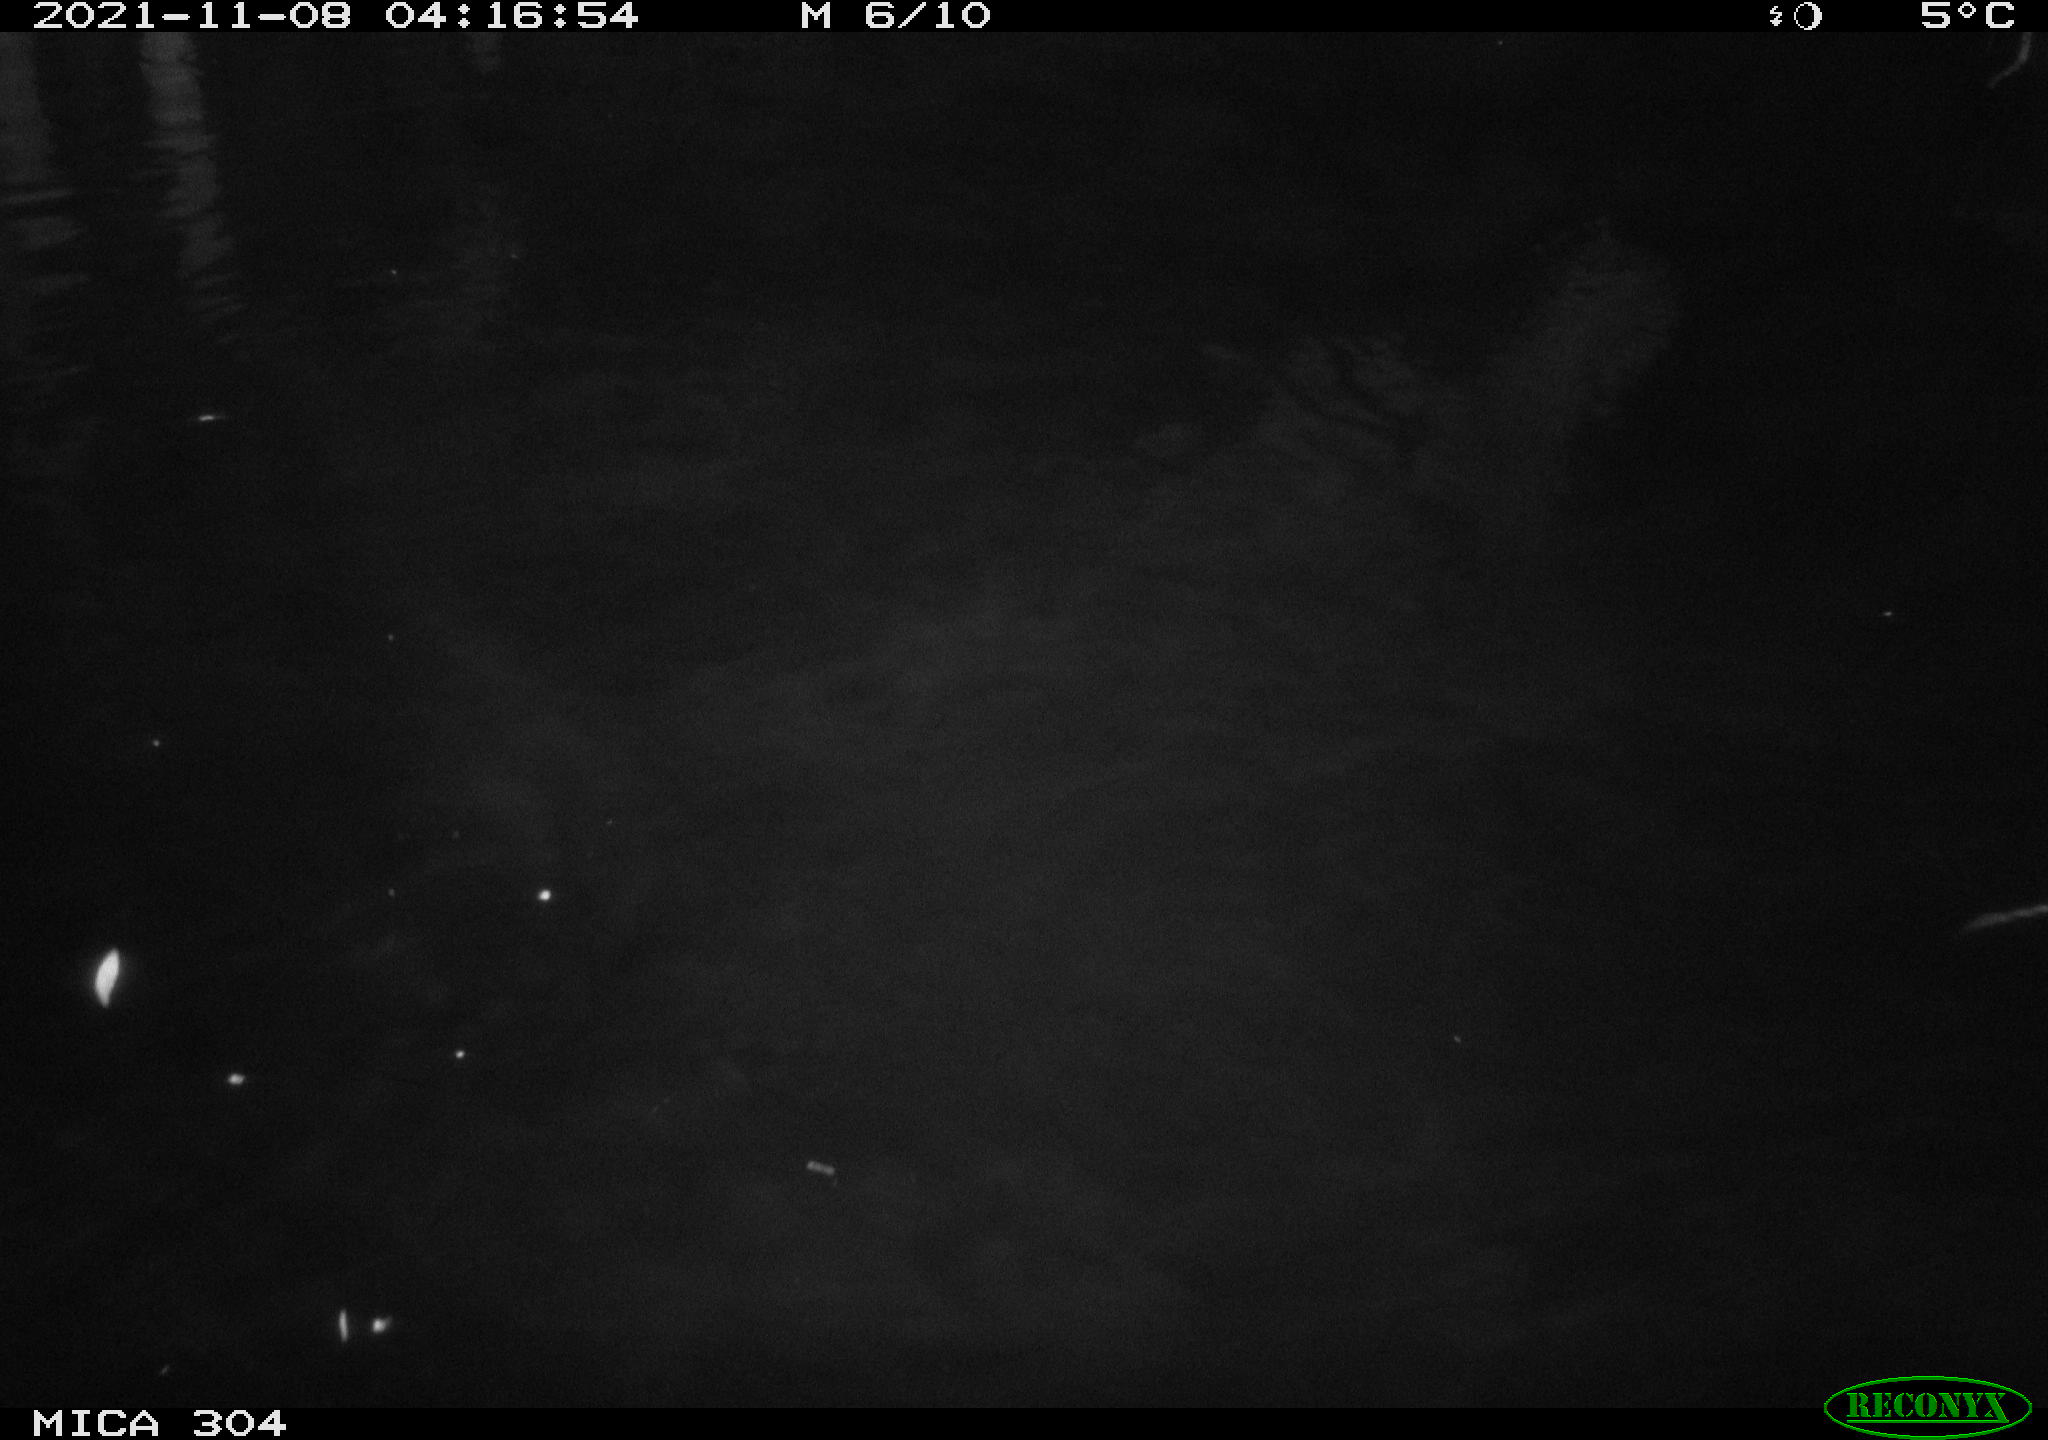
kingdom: Animalia
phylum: Chordata
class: Mammalia
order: Rodentia
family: Muridae
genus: Rattus
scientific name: Rattus norvegicus
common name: Brown rat
